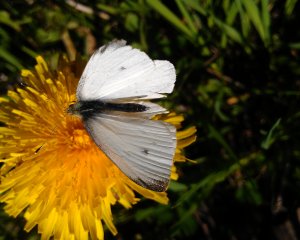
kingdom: Animalia
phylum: Arthropoda
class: Insecta
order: Lepidoptera
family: Pieridae
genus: Pieris
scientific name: Pieris rapae
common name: Cabbage White
